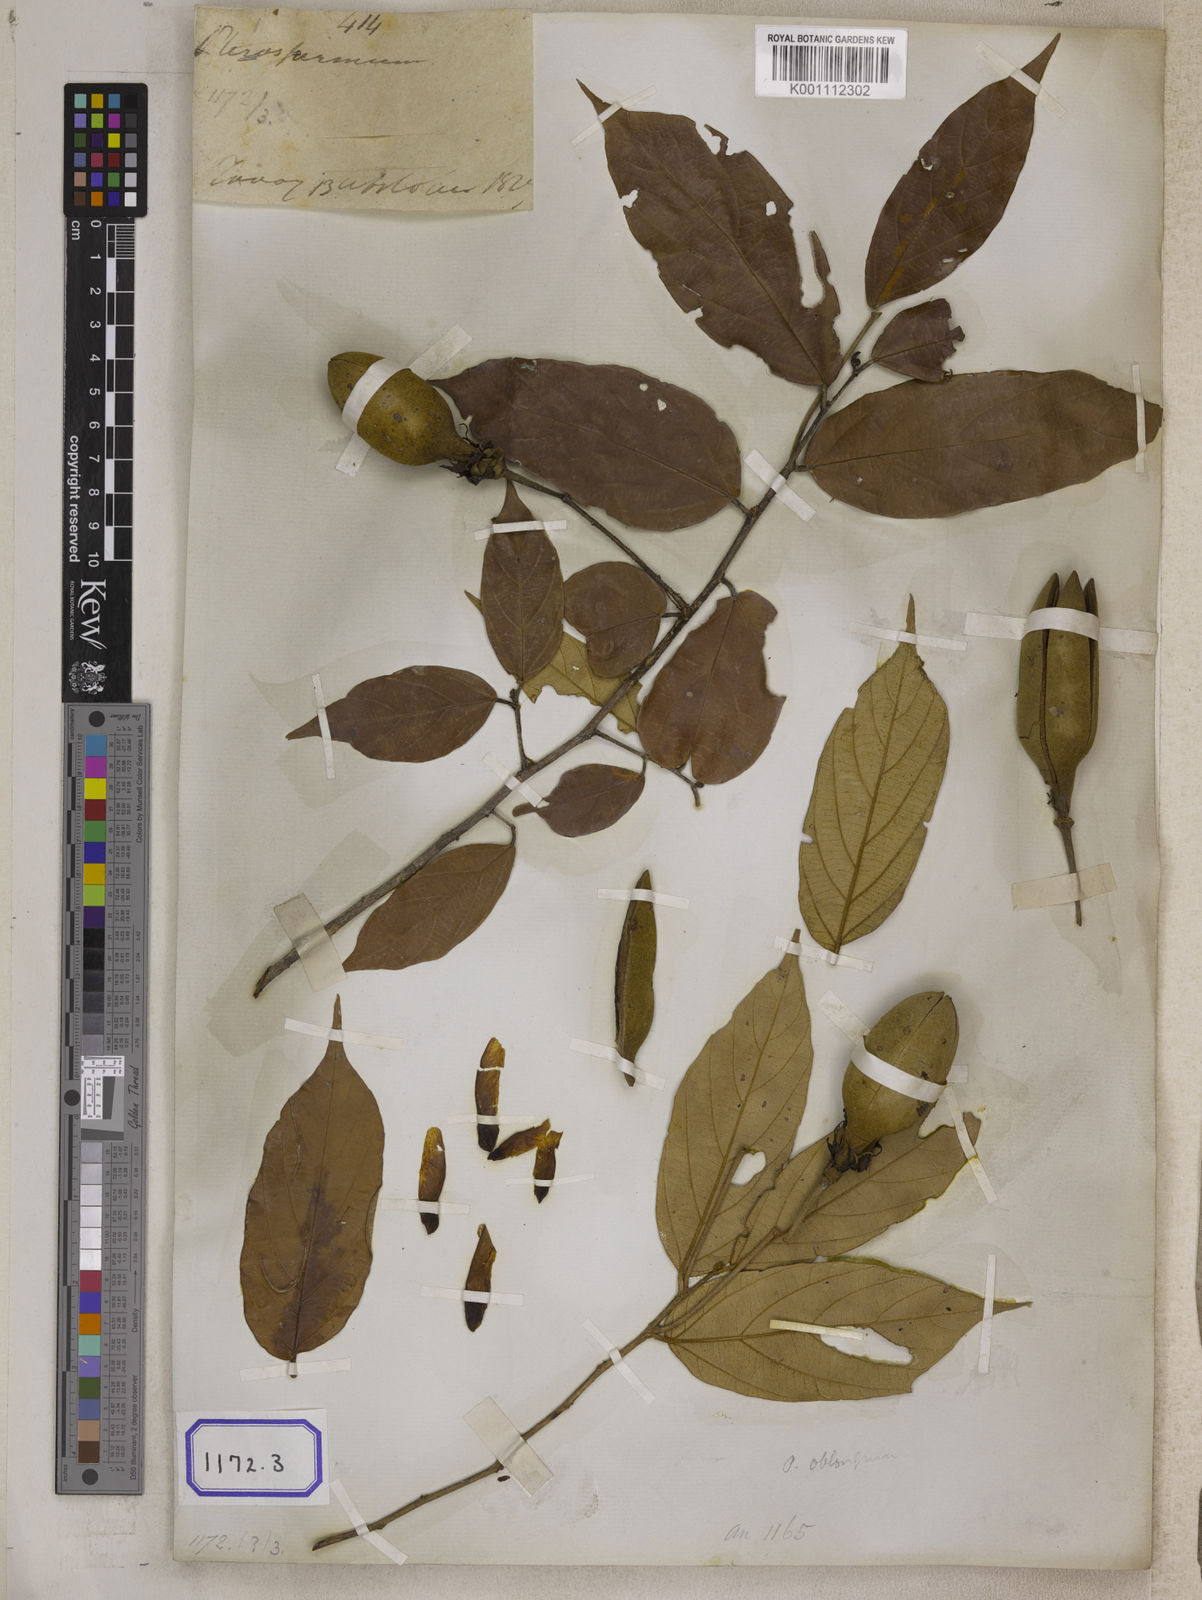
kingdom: Plantae
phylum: Tracheophyta
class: Magnoliopsida
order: Malvales
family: Malvaceae
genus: Pterospermum
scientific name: Pterospermum
